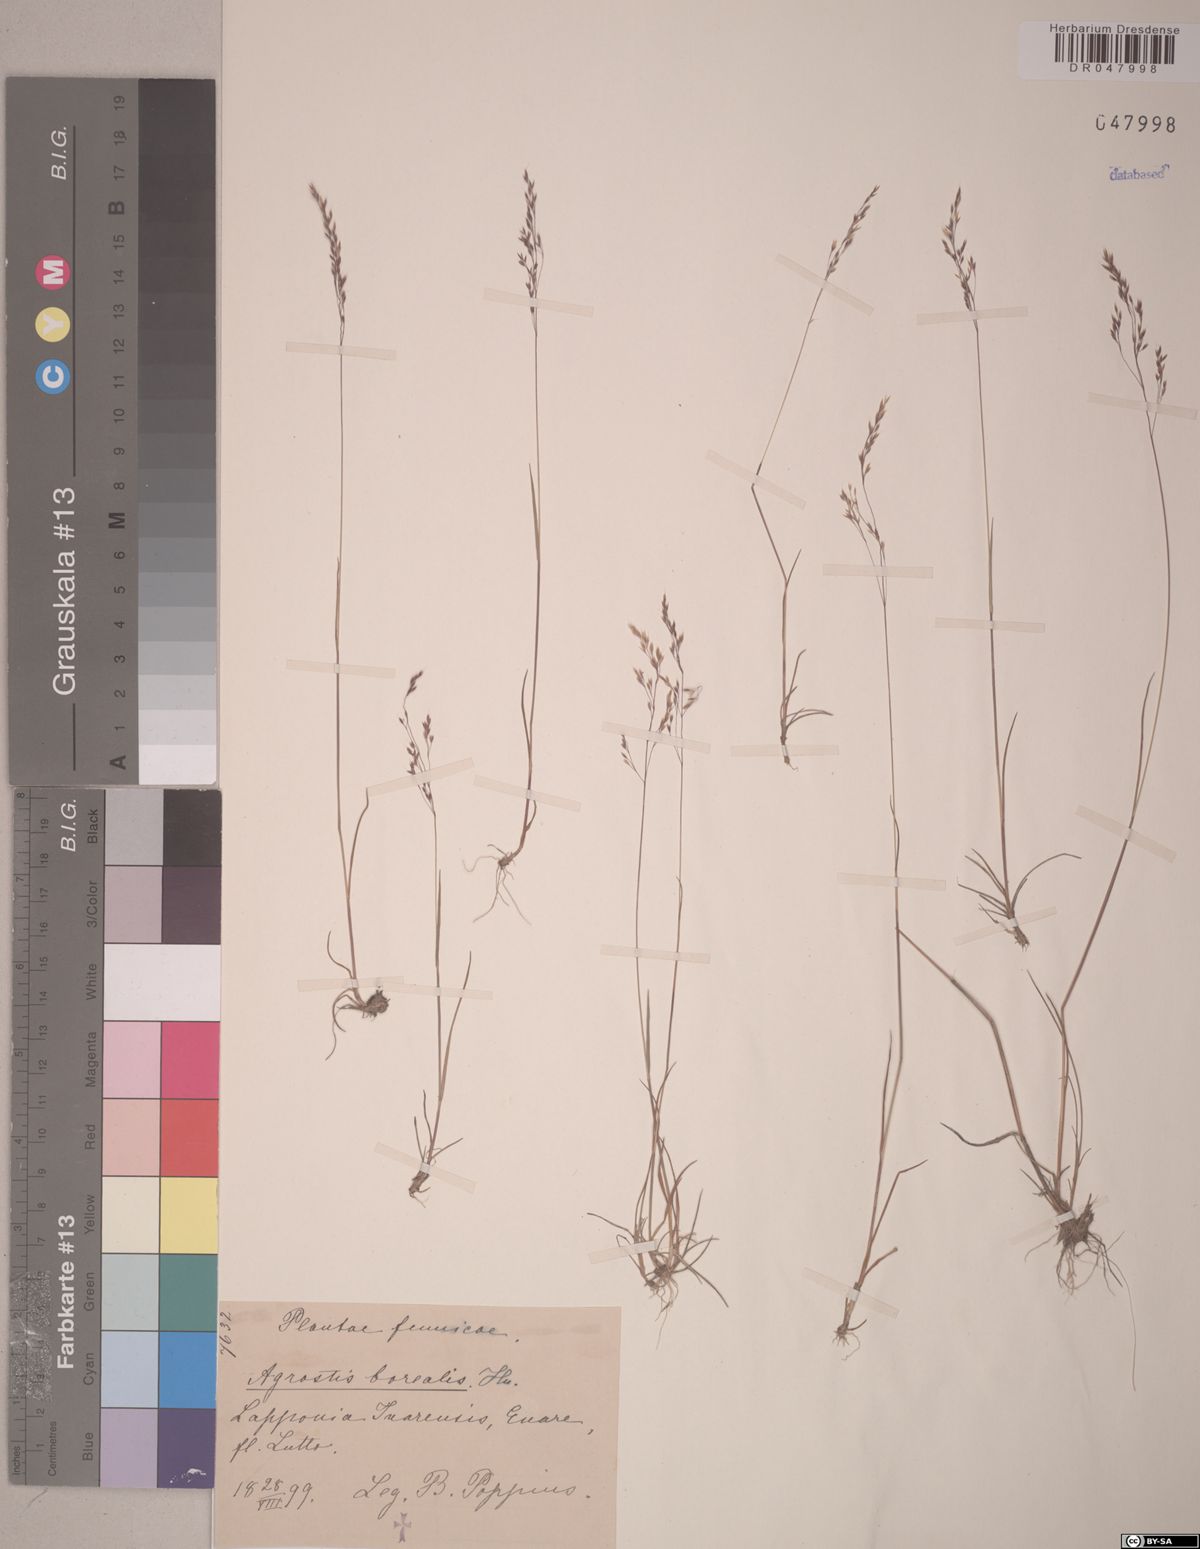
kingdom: Plantae
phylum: Tracheophyta
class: Liliopsida
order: Poales
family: Poaceae
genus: Agrostis
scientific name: Agrostis mertensii
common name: Northern bent
